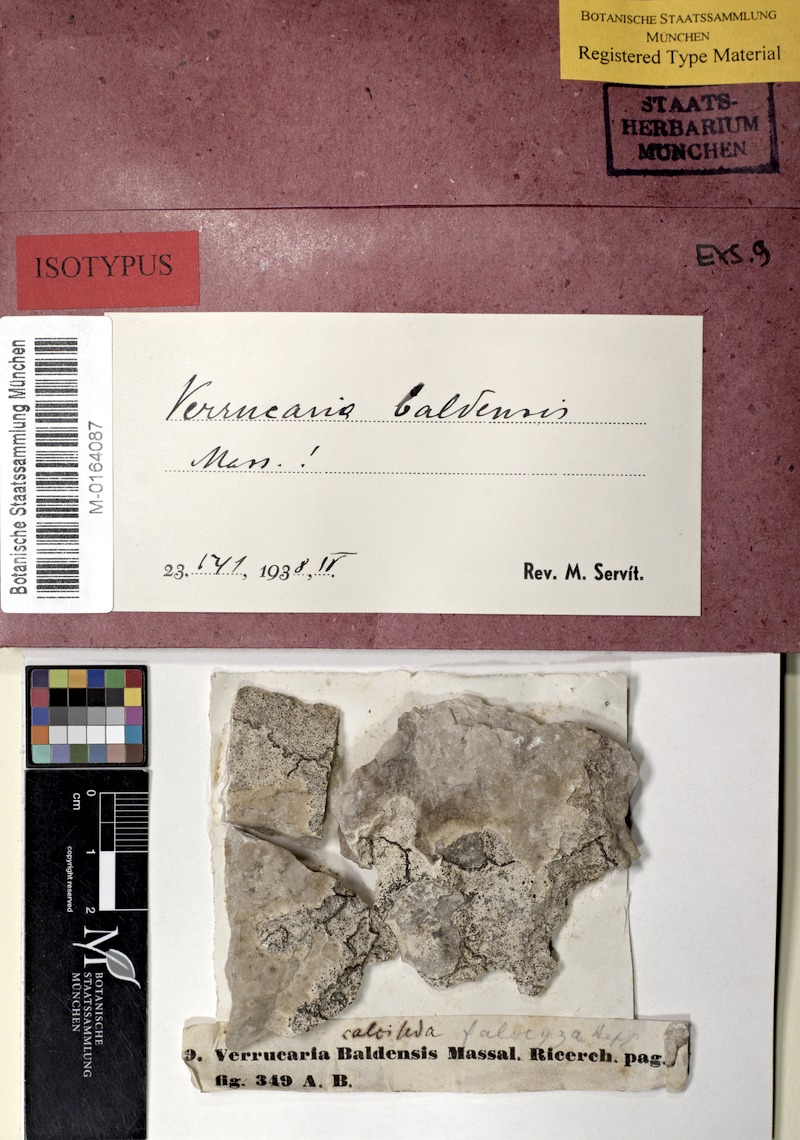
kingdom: Fungi
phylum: Ascomycota
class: Eurotiomycetes
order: Verrucariales
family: Verrucariaceae
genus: Bagliettoa
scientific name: Bagliettoa baldensis
